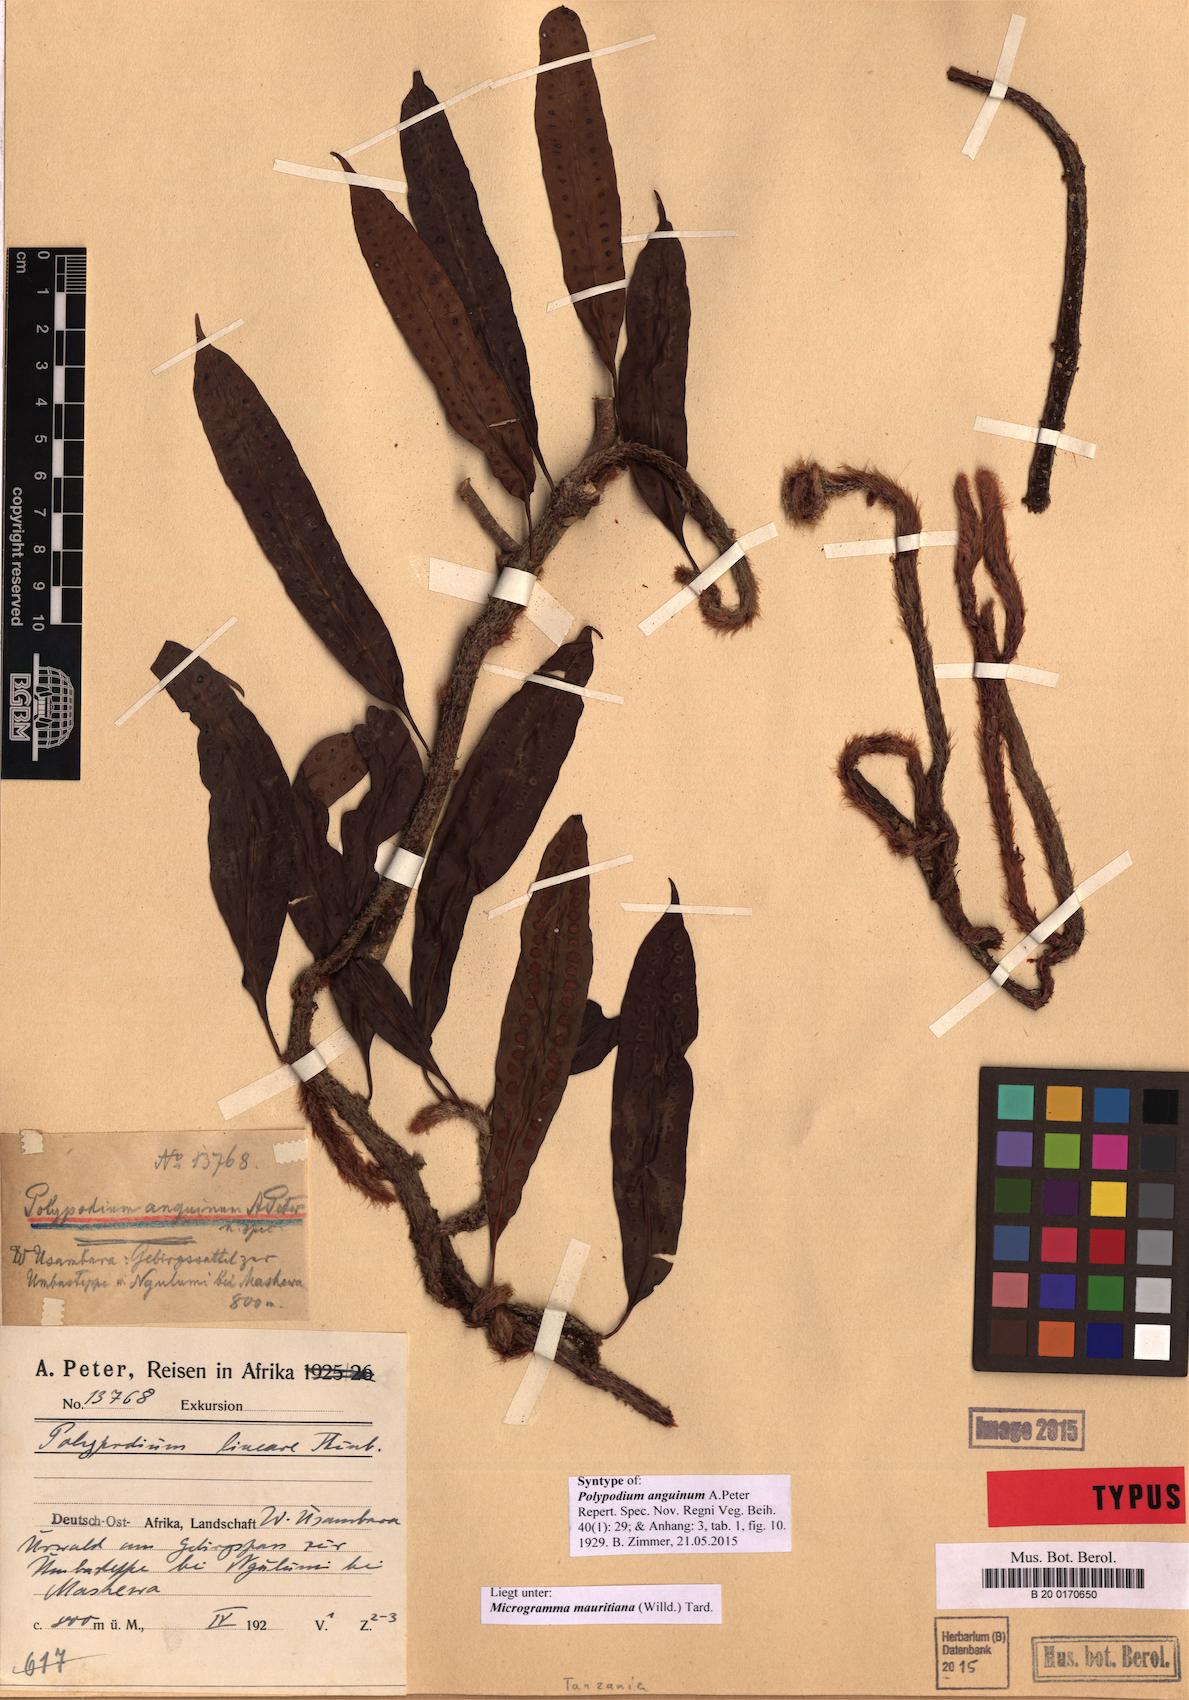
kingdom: Plantae
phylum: Tracheophyta
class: Polypodiopsida
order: Polypodiales
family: Polypodiaceae
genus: Microgramma
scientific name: Microgramma mauritiana
